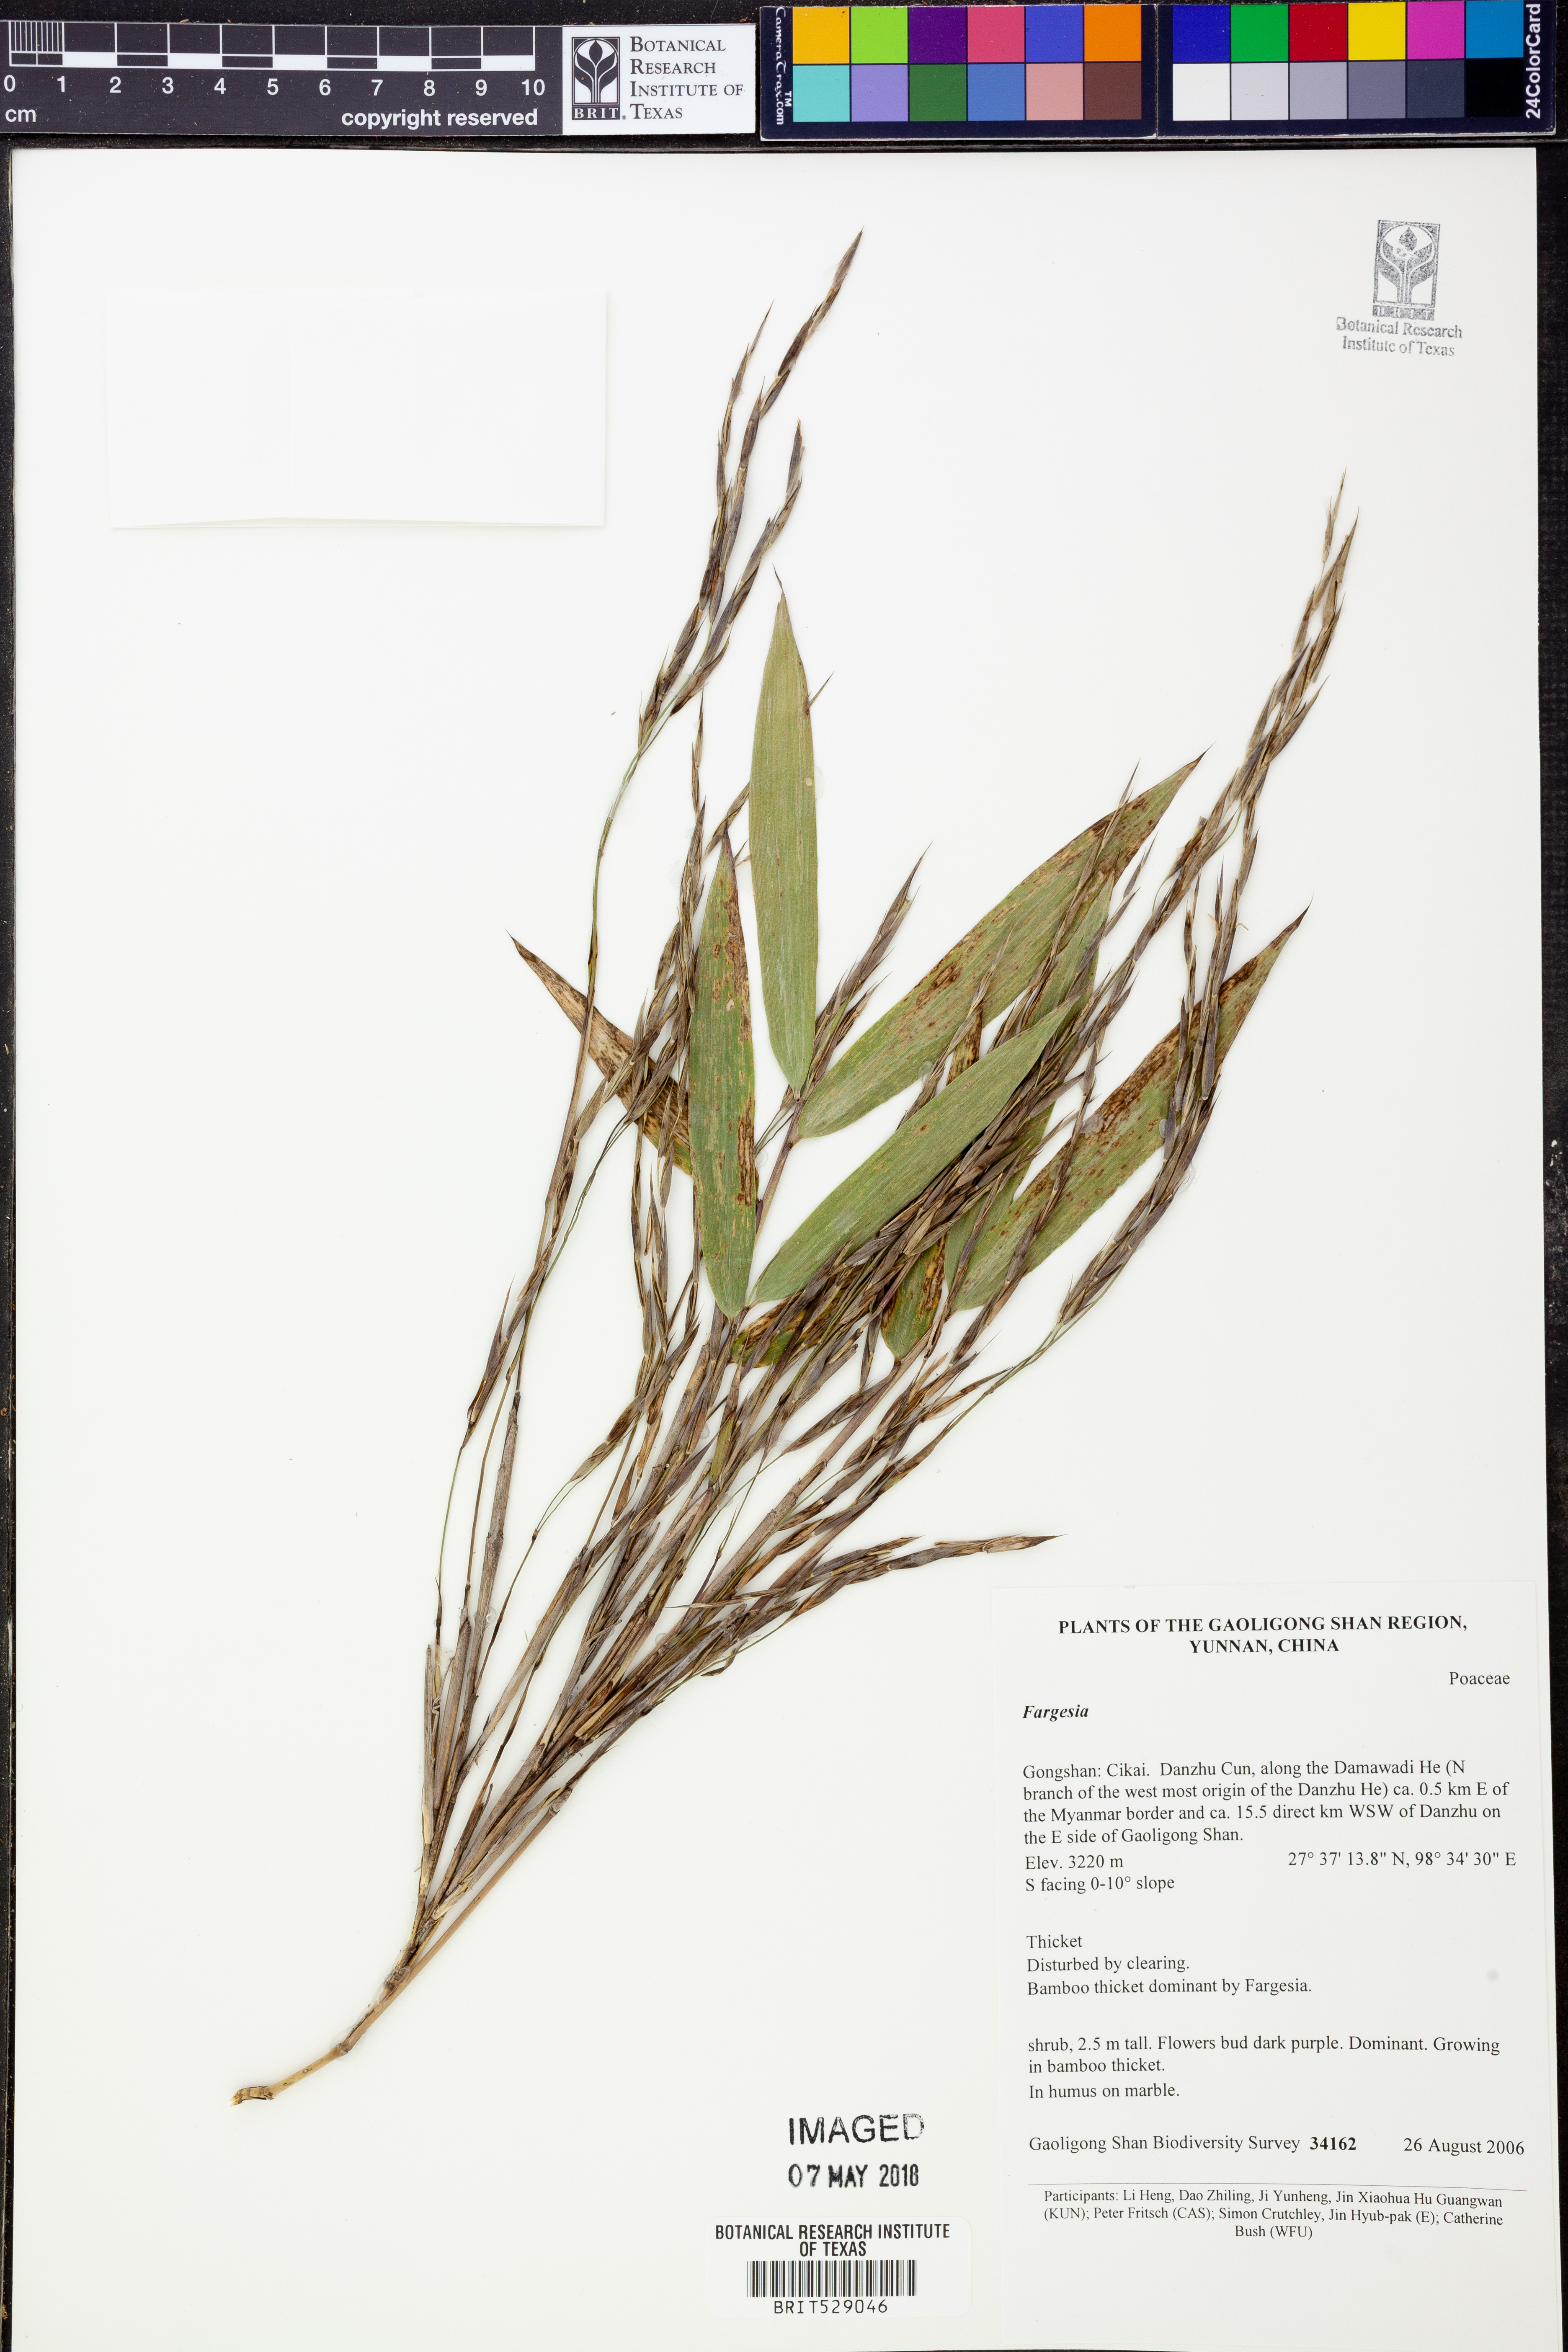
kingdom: Plantae
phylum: Tracheophyta
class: Liliopsida
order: Poales
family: Poaceae
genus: Fargesia
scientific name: Fargesia
